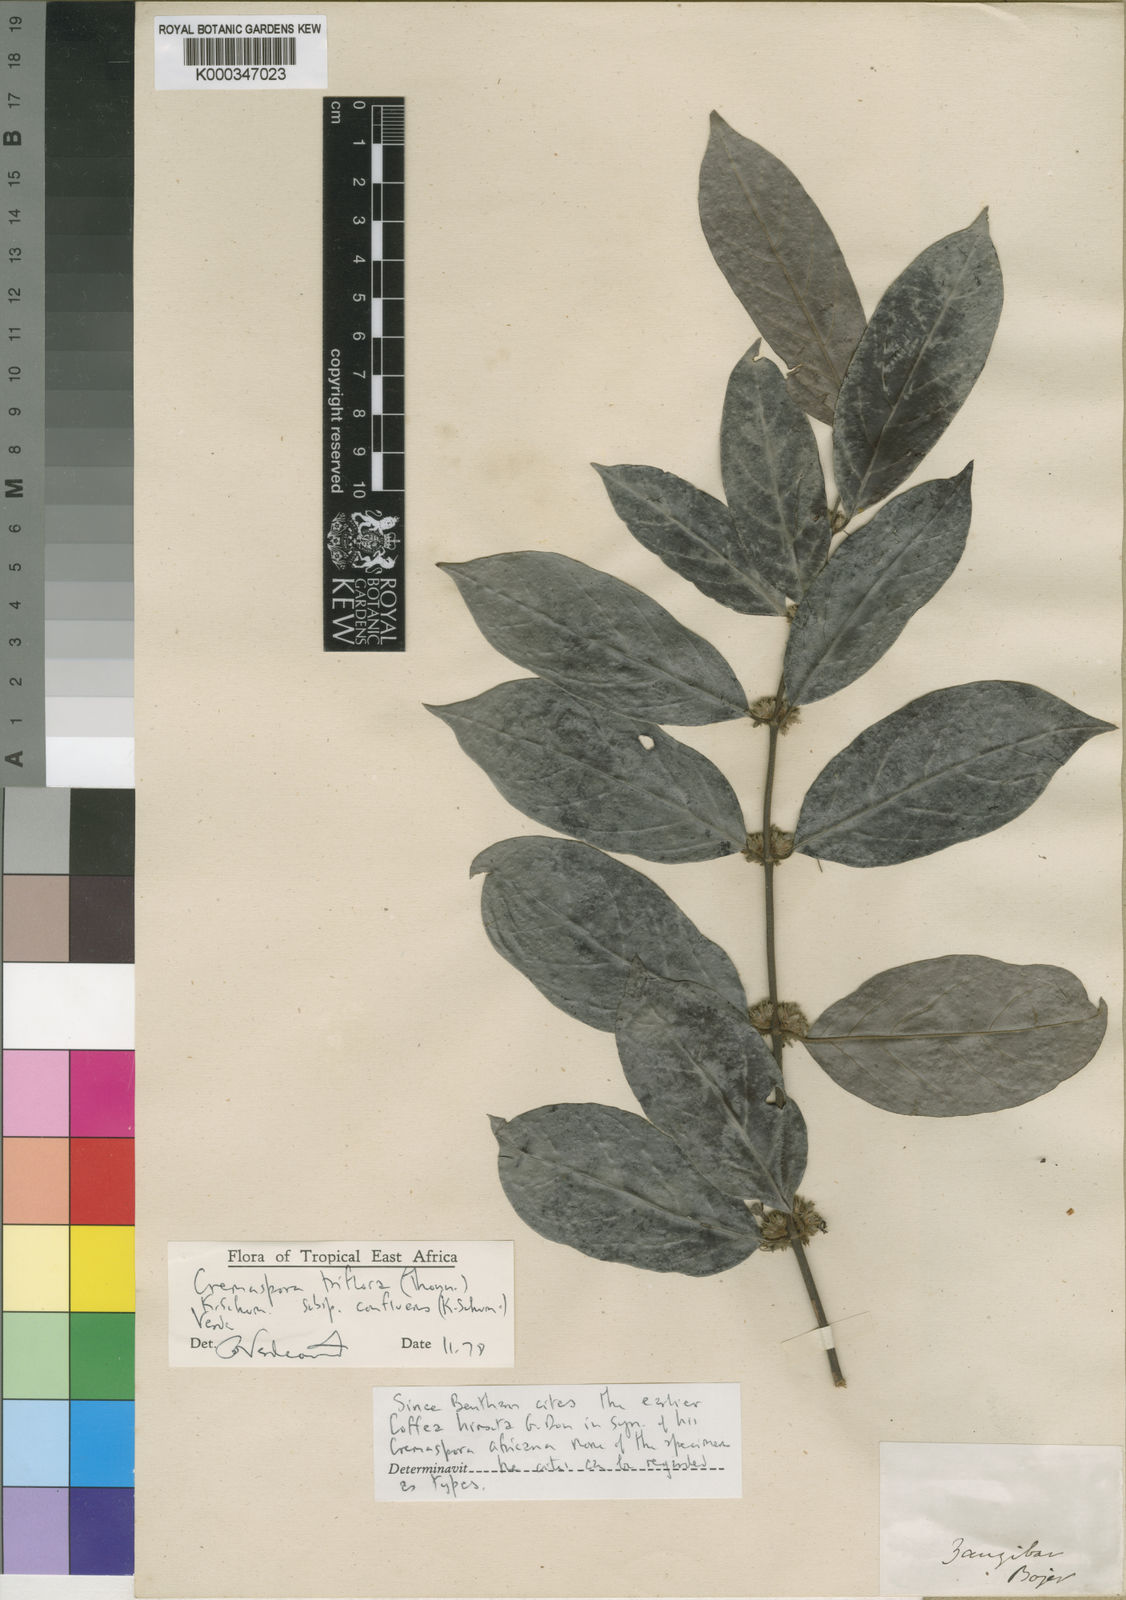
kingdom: Plantae
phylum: Tracheophyta
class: Magnoliopsida
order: Gentianales
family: Rubiaceae
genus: Cremaspora
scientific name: Cremaspora triflora
